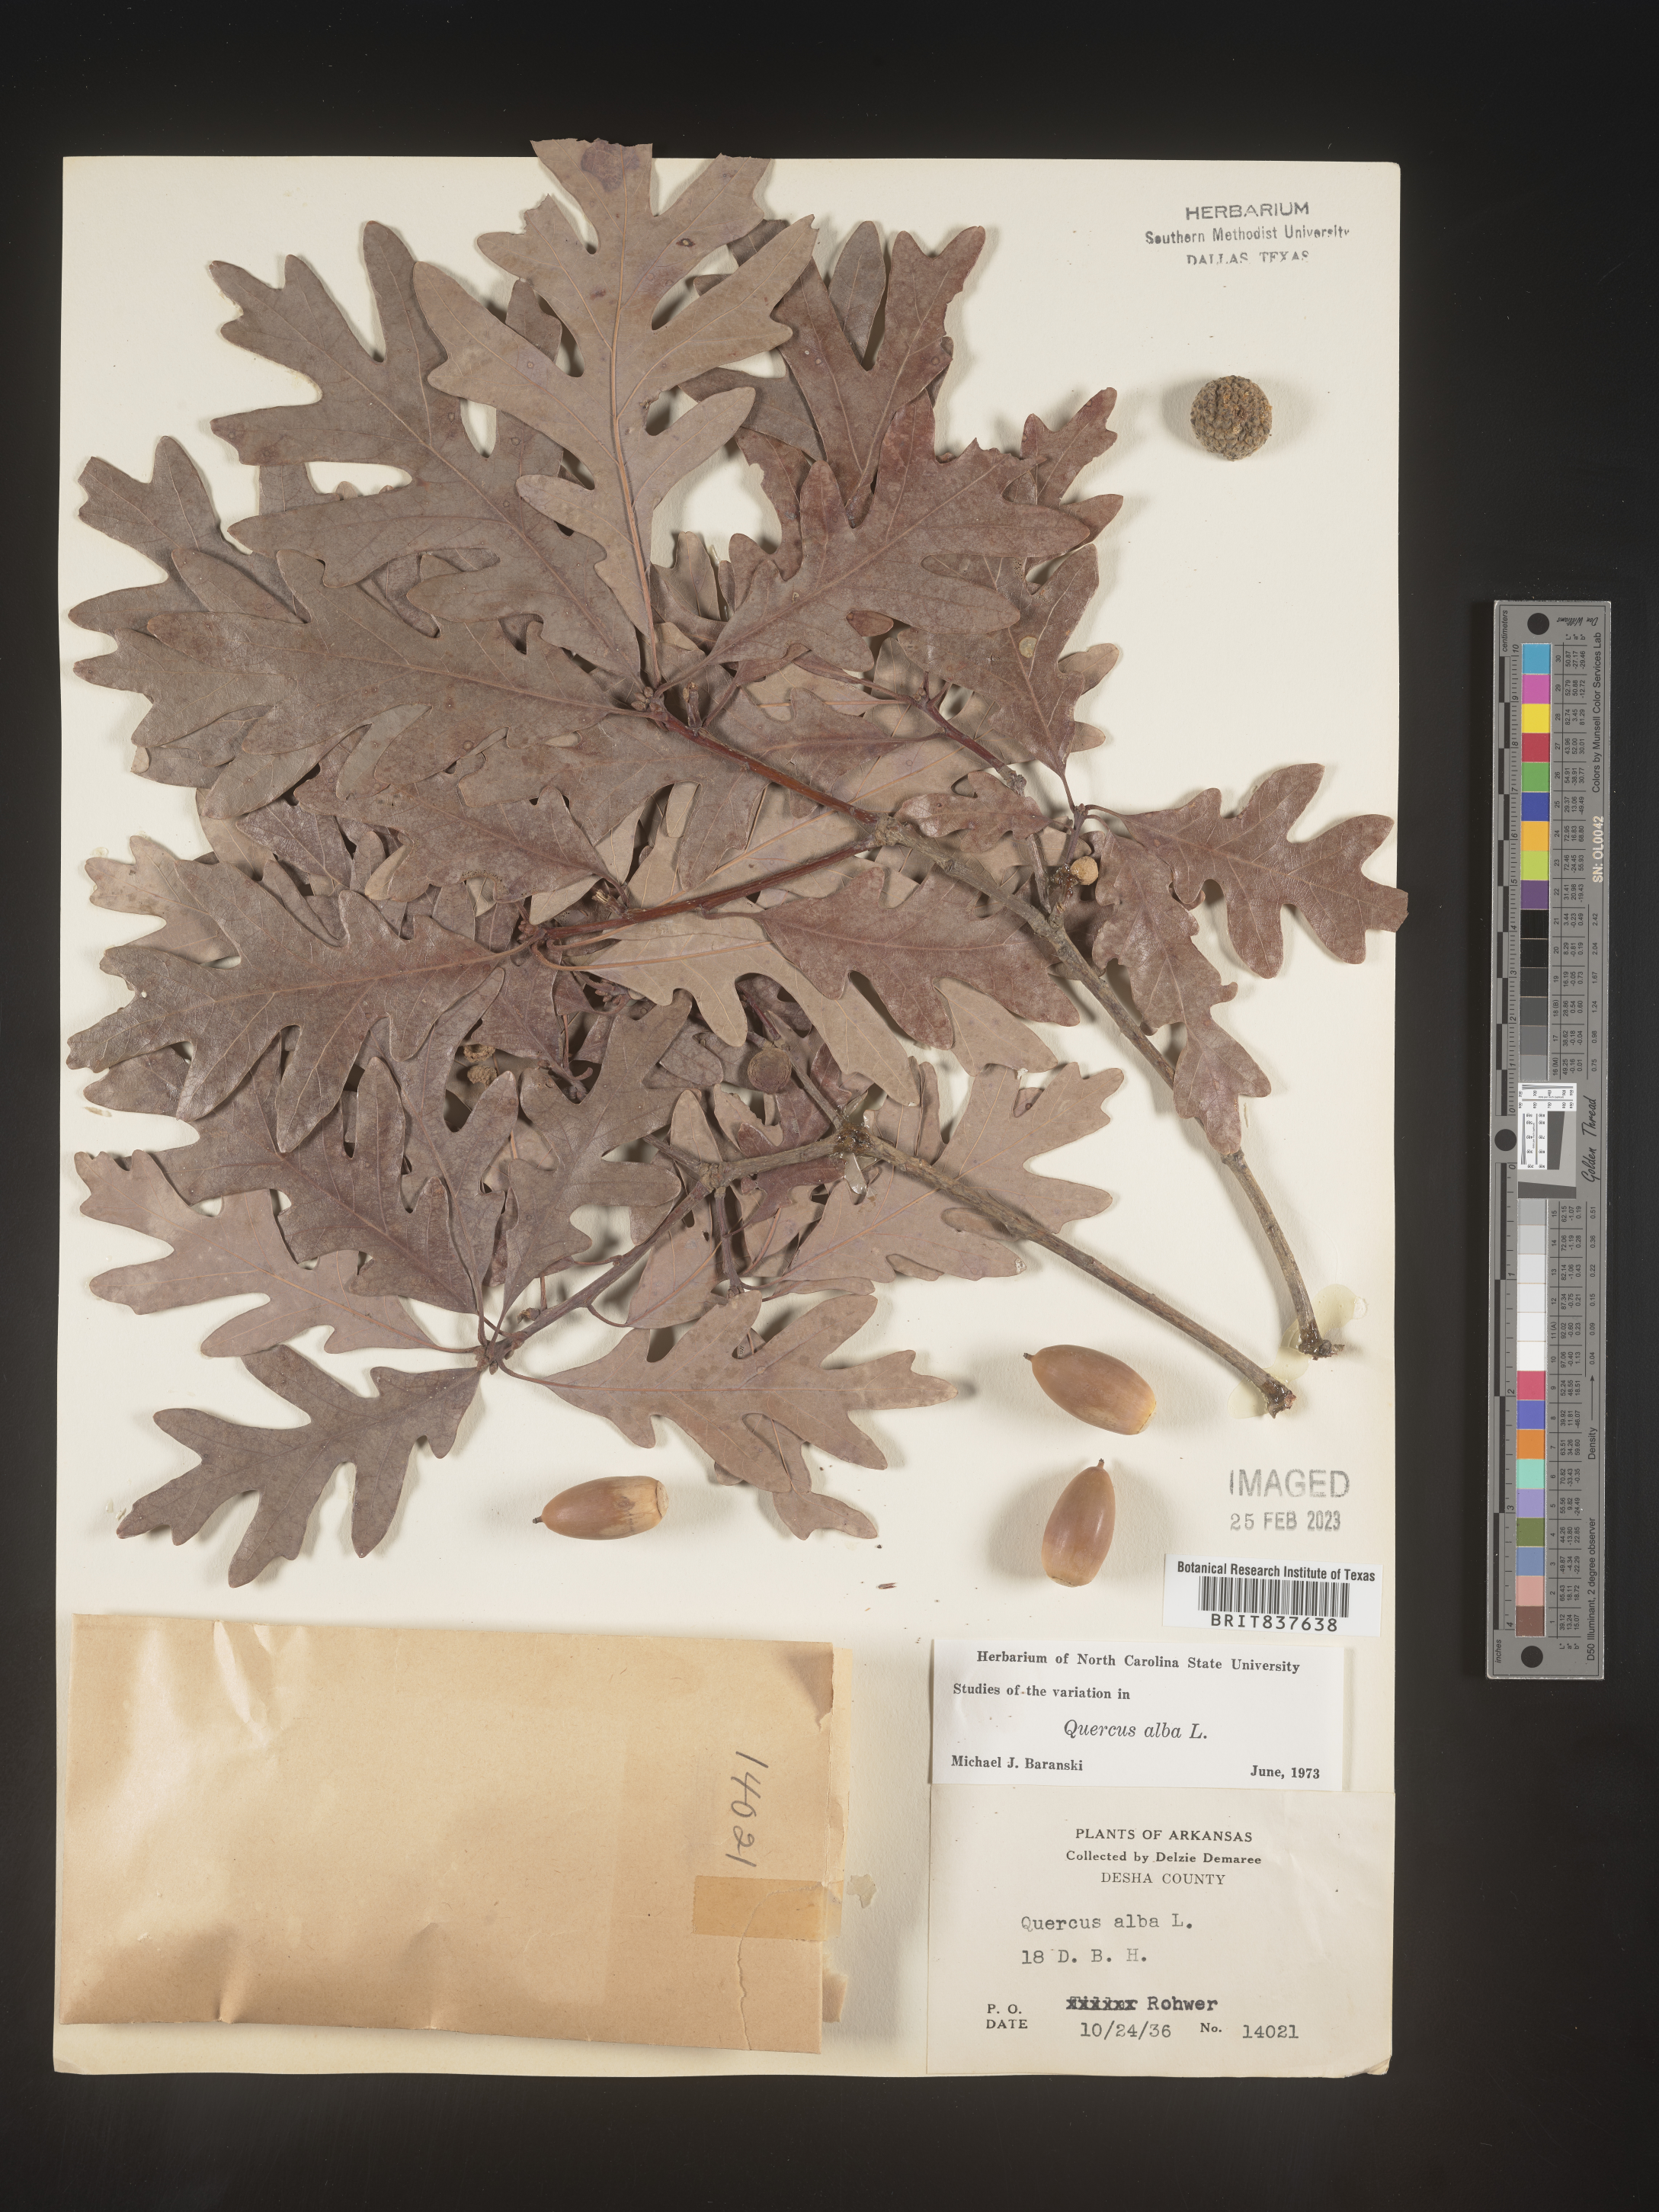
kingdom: Plantae
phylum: Tracheophyta
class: Magnoliopsida
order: Fagales
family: Fagaceae
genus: Quercus
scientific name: Quercus alba
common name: White oak
